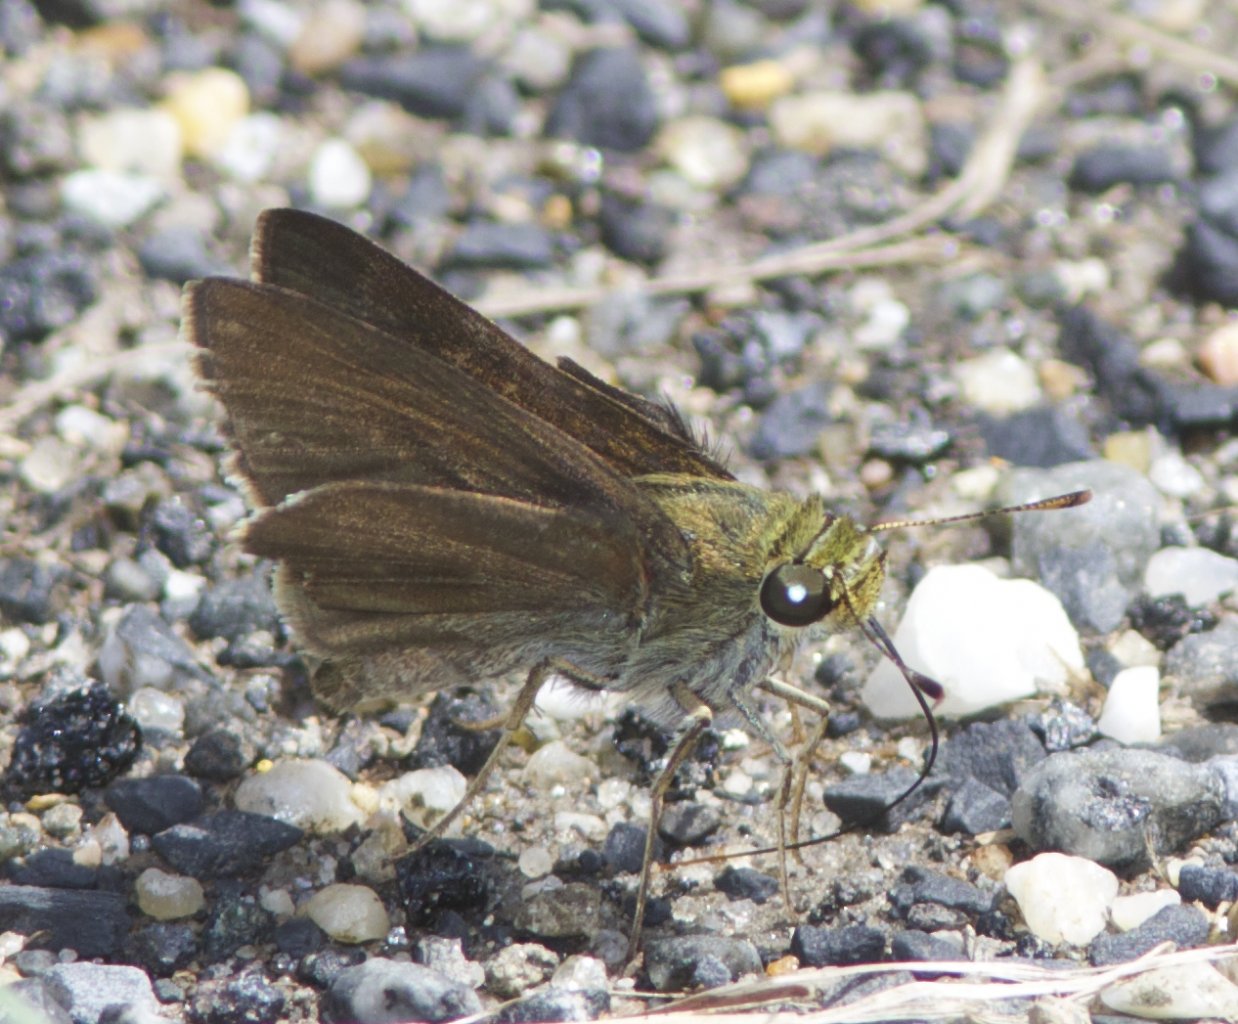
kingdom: Animalia
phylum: Arthropoda
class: Insecta
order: Lepidoptera
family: Hesperiidae
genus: Euphyes
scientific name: Euphyes vestris
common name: Dun Skipper
